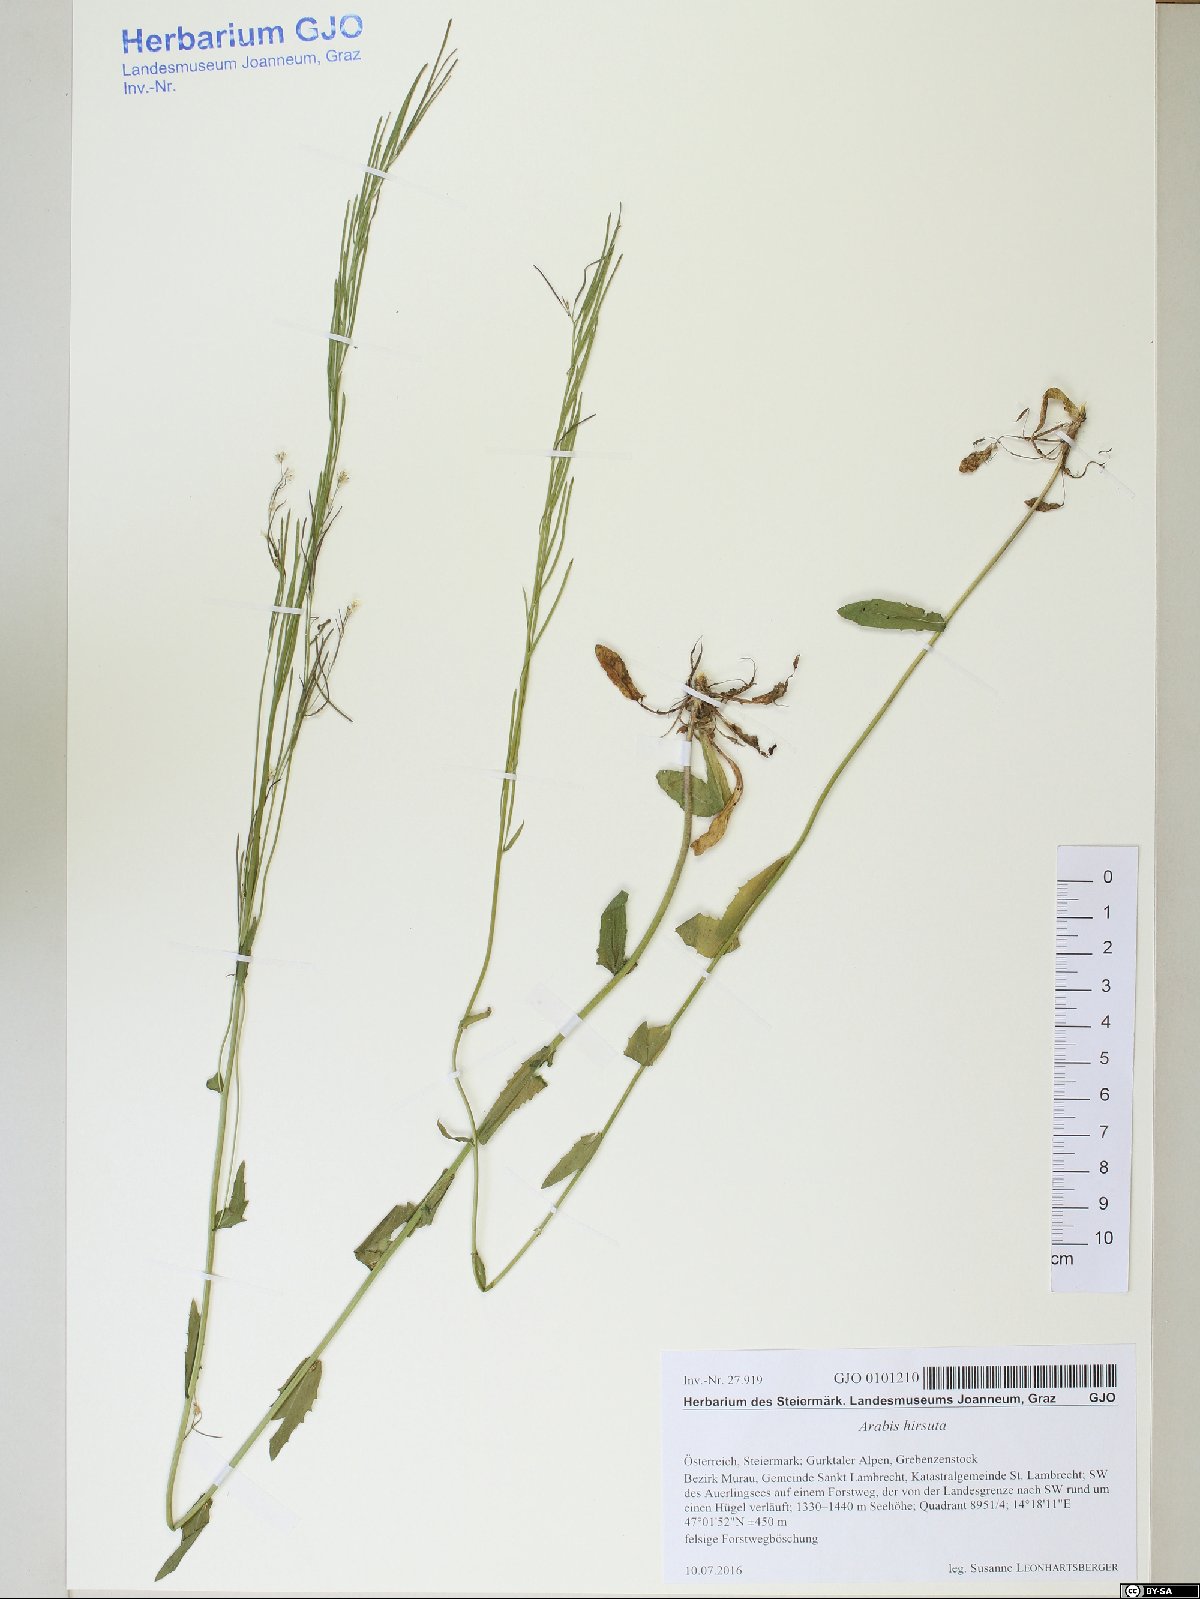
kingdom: Plantae
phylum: Tracheophyta
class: Magnoliopsida
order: Brassicales
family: Brassicaceae
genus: Arabis
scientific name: Arabis hirsuta
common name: Hairy rock-cress
